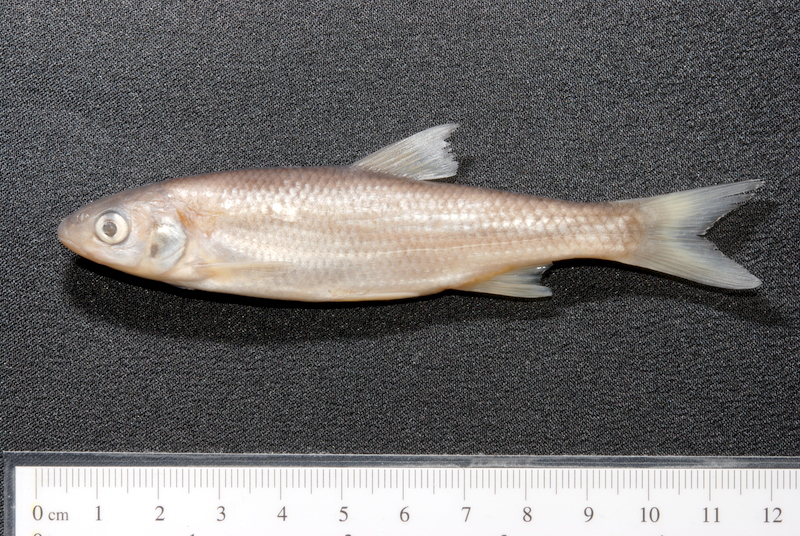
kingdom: Animalia
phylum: Chordata
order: Cypriniformes
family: Cyprinidae
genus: Leuciscus
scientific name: Leuciscus leuciscus
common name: Dace
